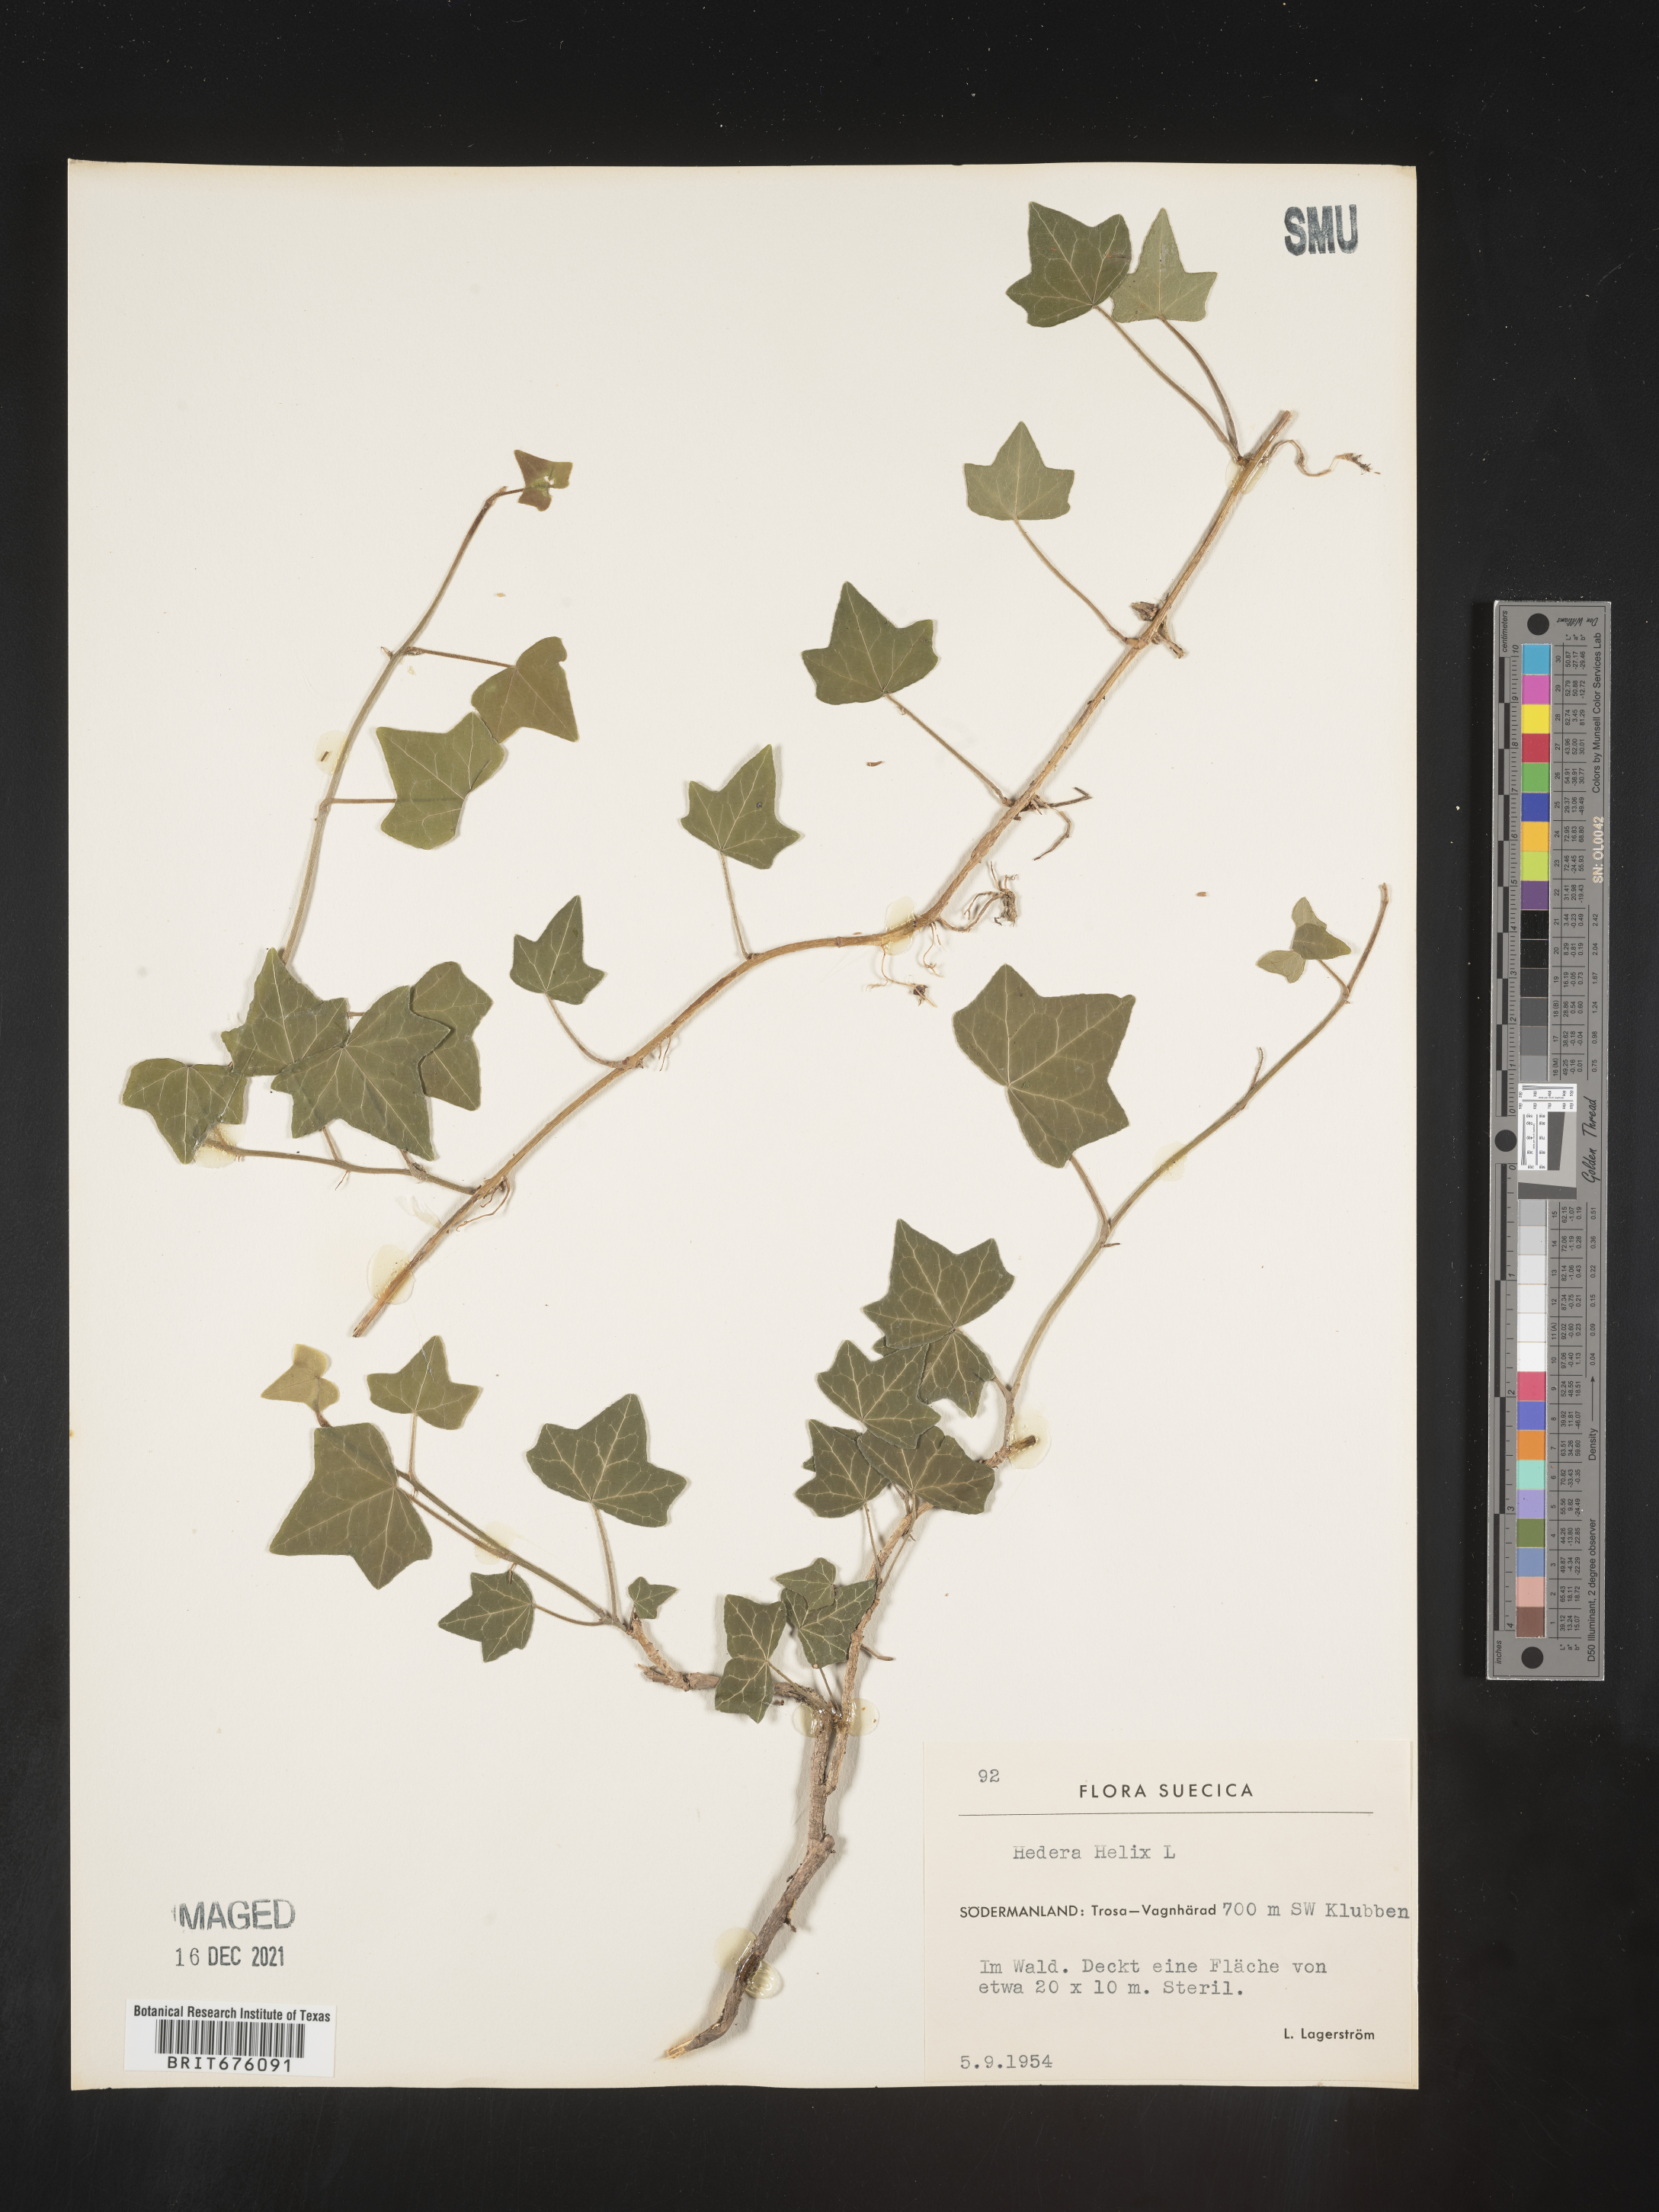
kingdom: Plantae
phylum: Tracheophyta
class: Magnoliopsida
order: Apiales
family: Araliaceae
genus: Hedera
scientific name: Hedera
